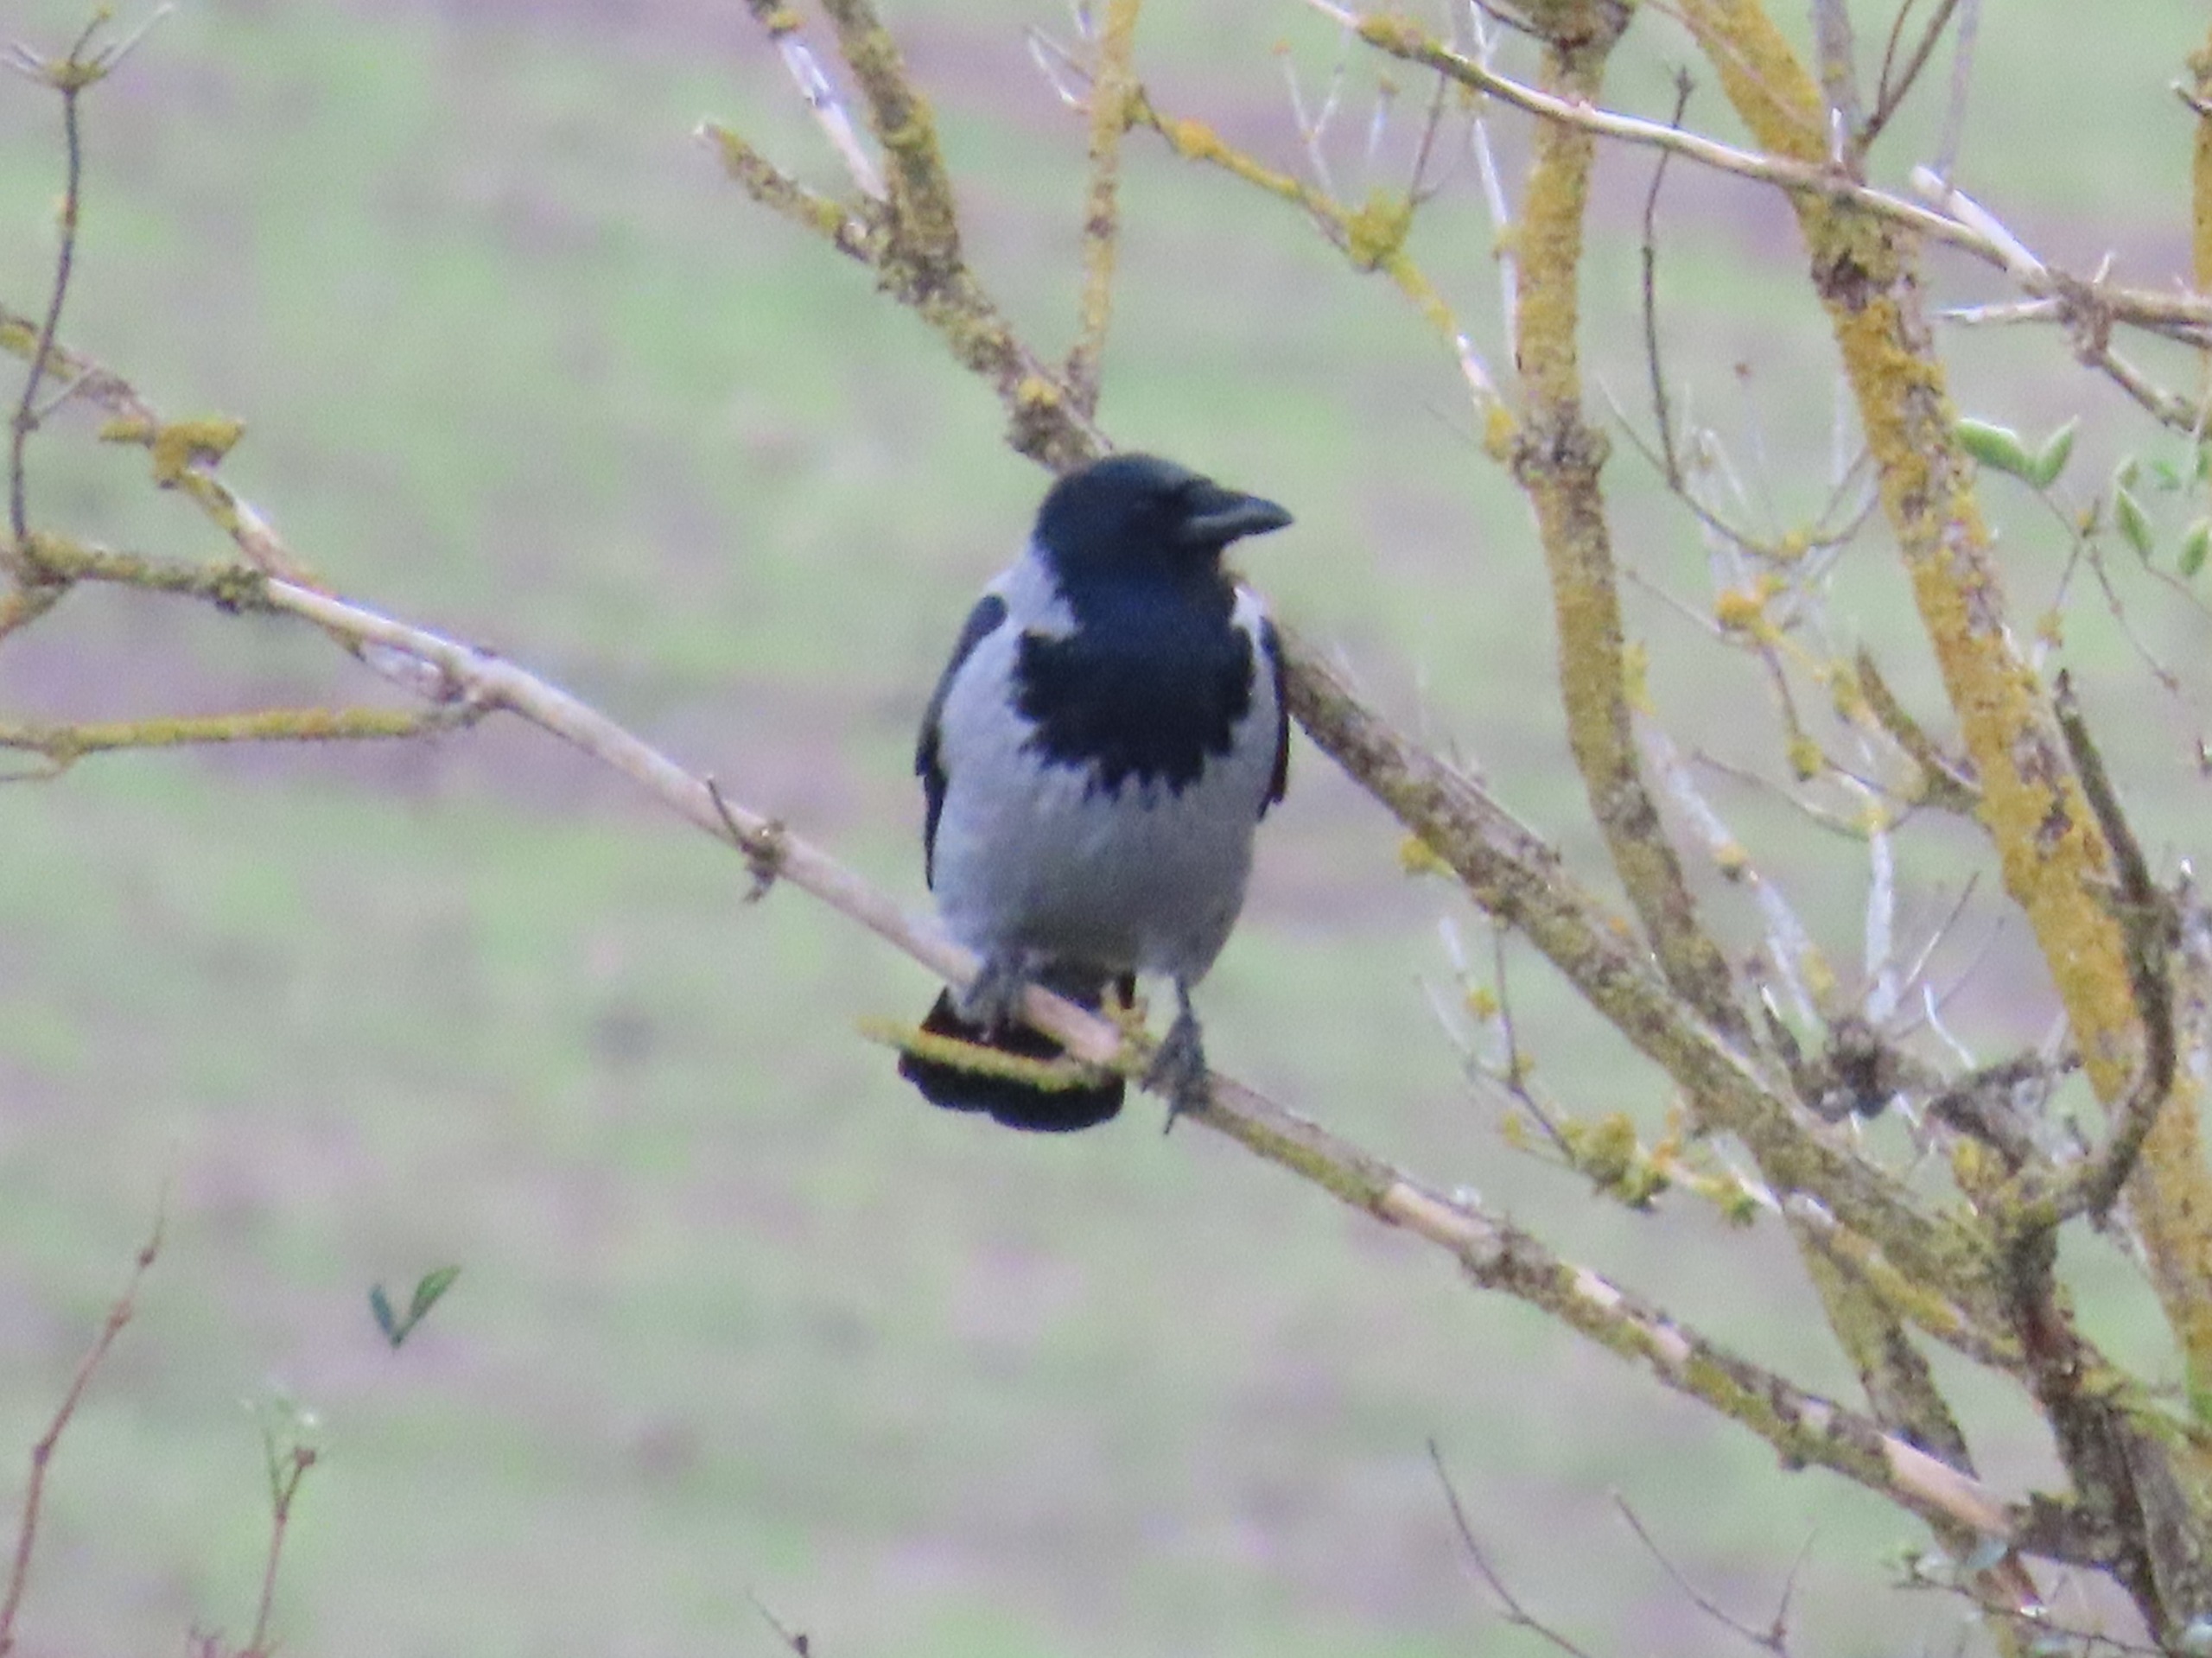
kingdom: Animalia
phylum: Chordata
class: Aves
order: Passeriformes
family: Corvidae
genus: Corvus
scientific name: Corvus cornix
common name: Gråkrage
